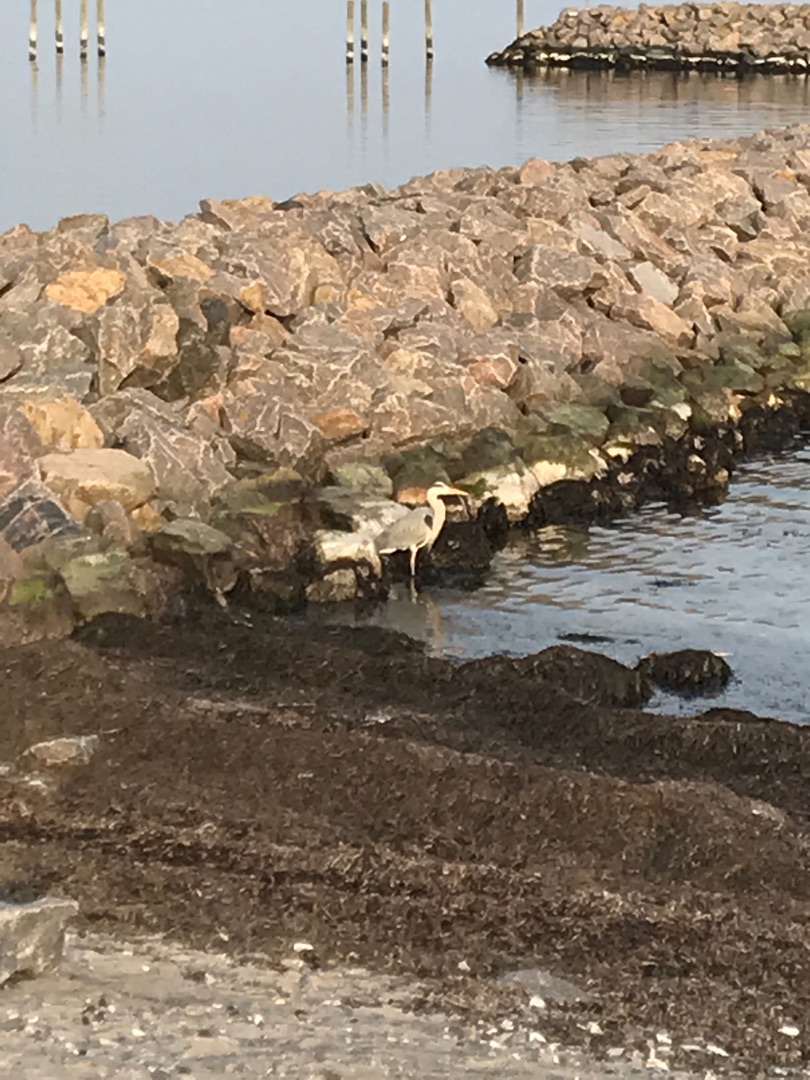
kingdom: Animalia
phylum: Chordata
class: Aves
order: Pelecaniformes
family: Ardeidae
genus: Ardea
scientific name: Ardea cinerea
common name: Fiskehejre
